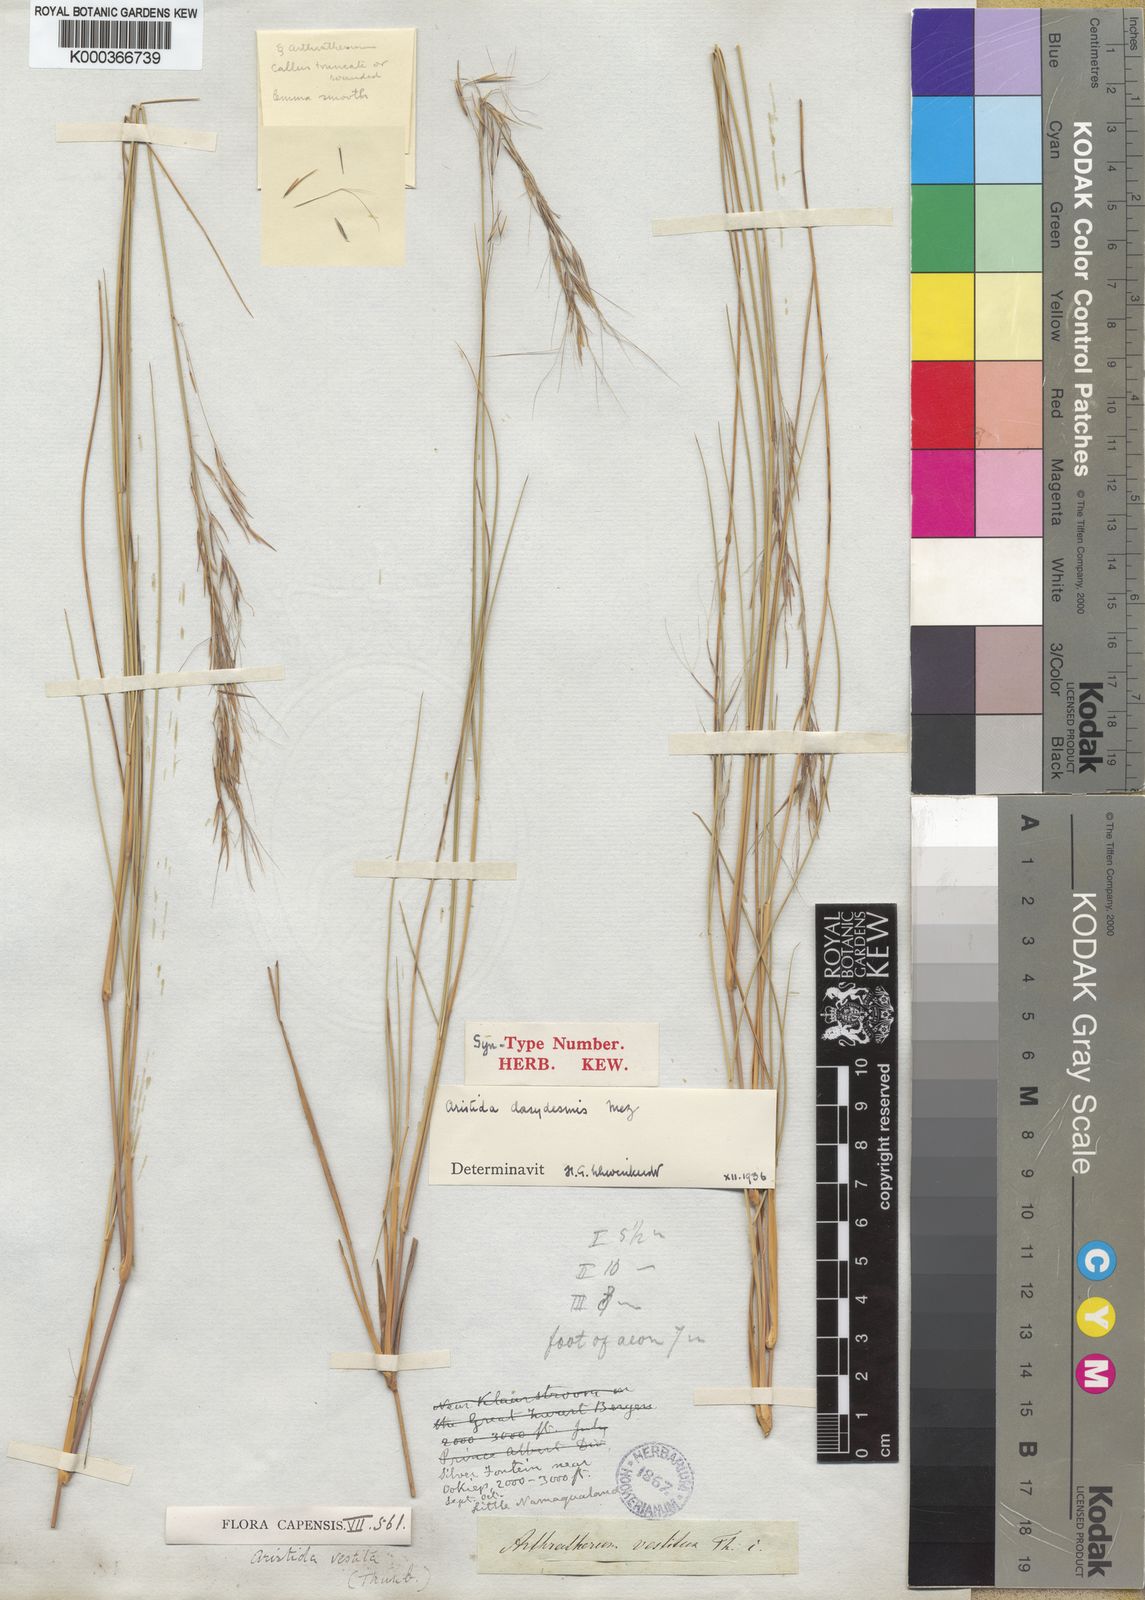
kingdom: Plantae
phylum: Tracheophyta
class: Liliopsida
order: Poales
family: Poaceae
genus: Aristida
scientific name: Aristida dasydesmis
